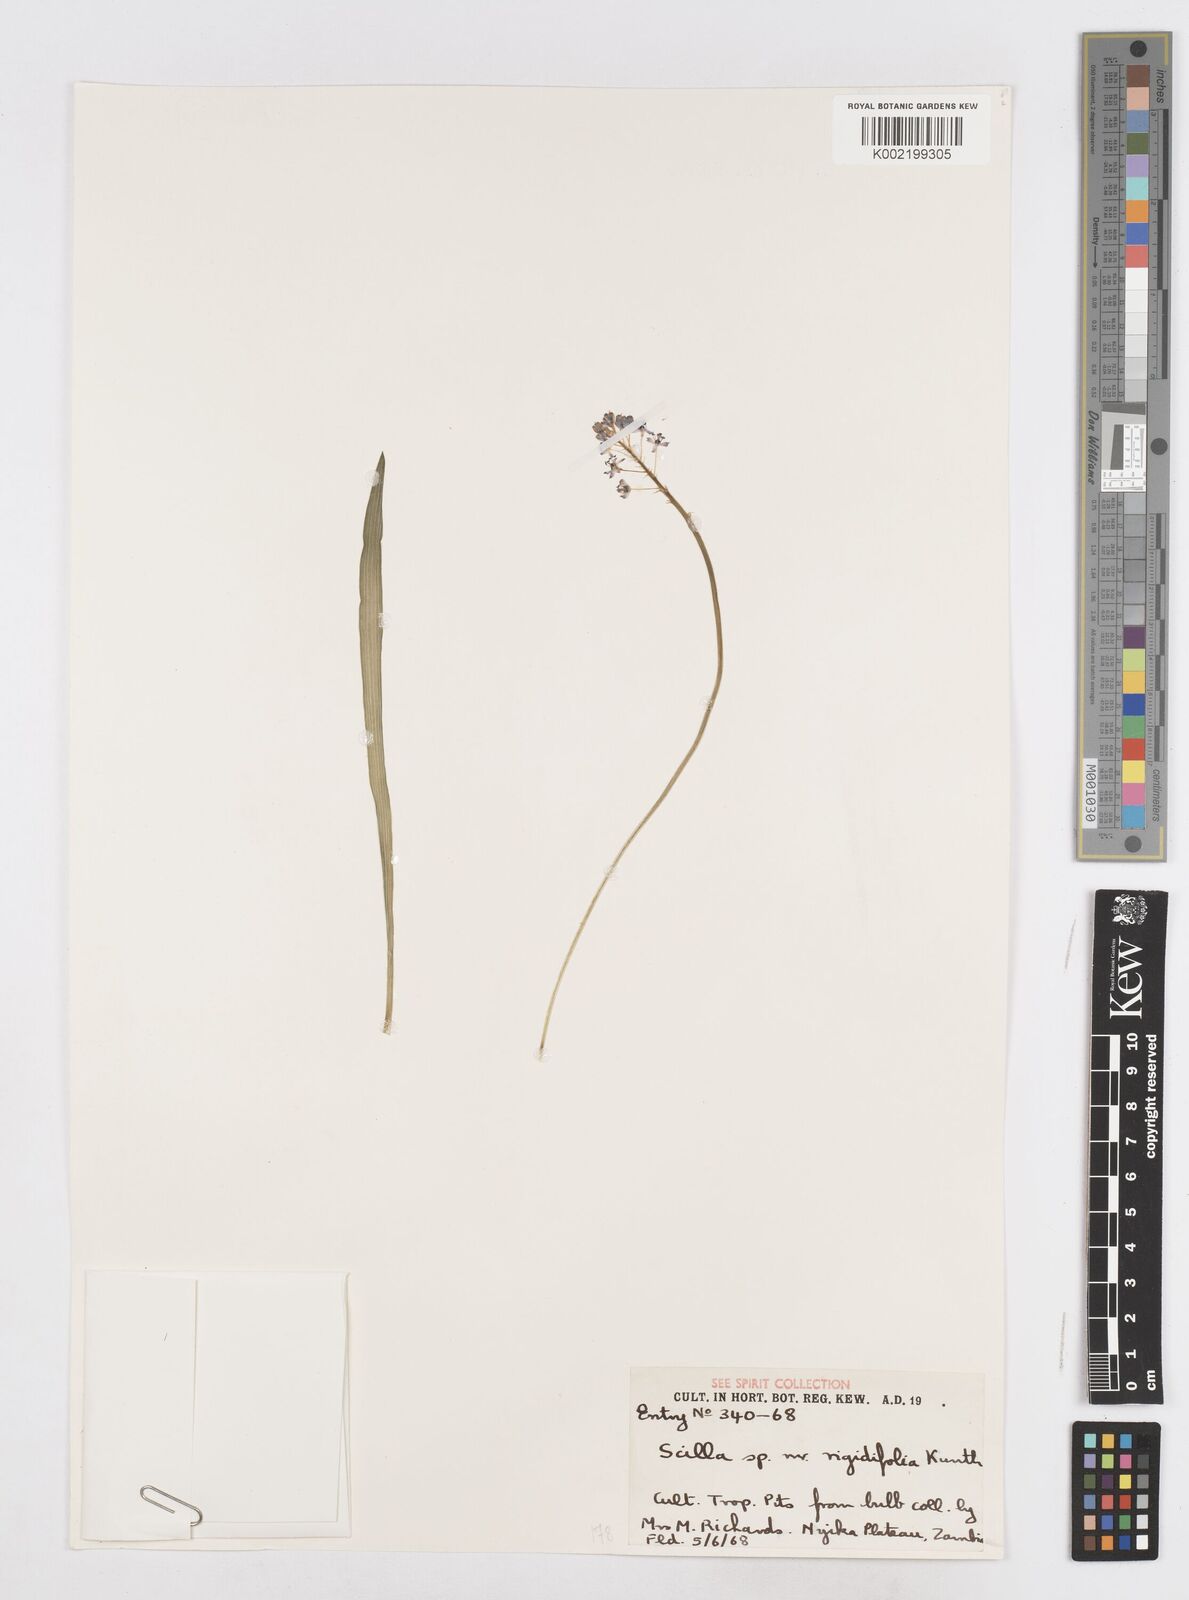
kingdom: Plantae
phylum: Tracheophyta
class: Liliopsida
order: Asparagales
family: Asparagaceae
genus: Schizocarphus
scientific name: Schizocarphus nervosus
